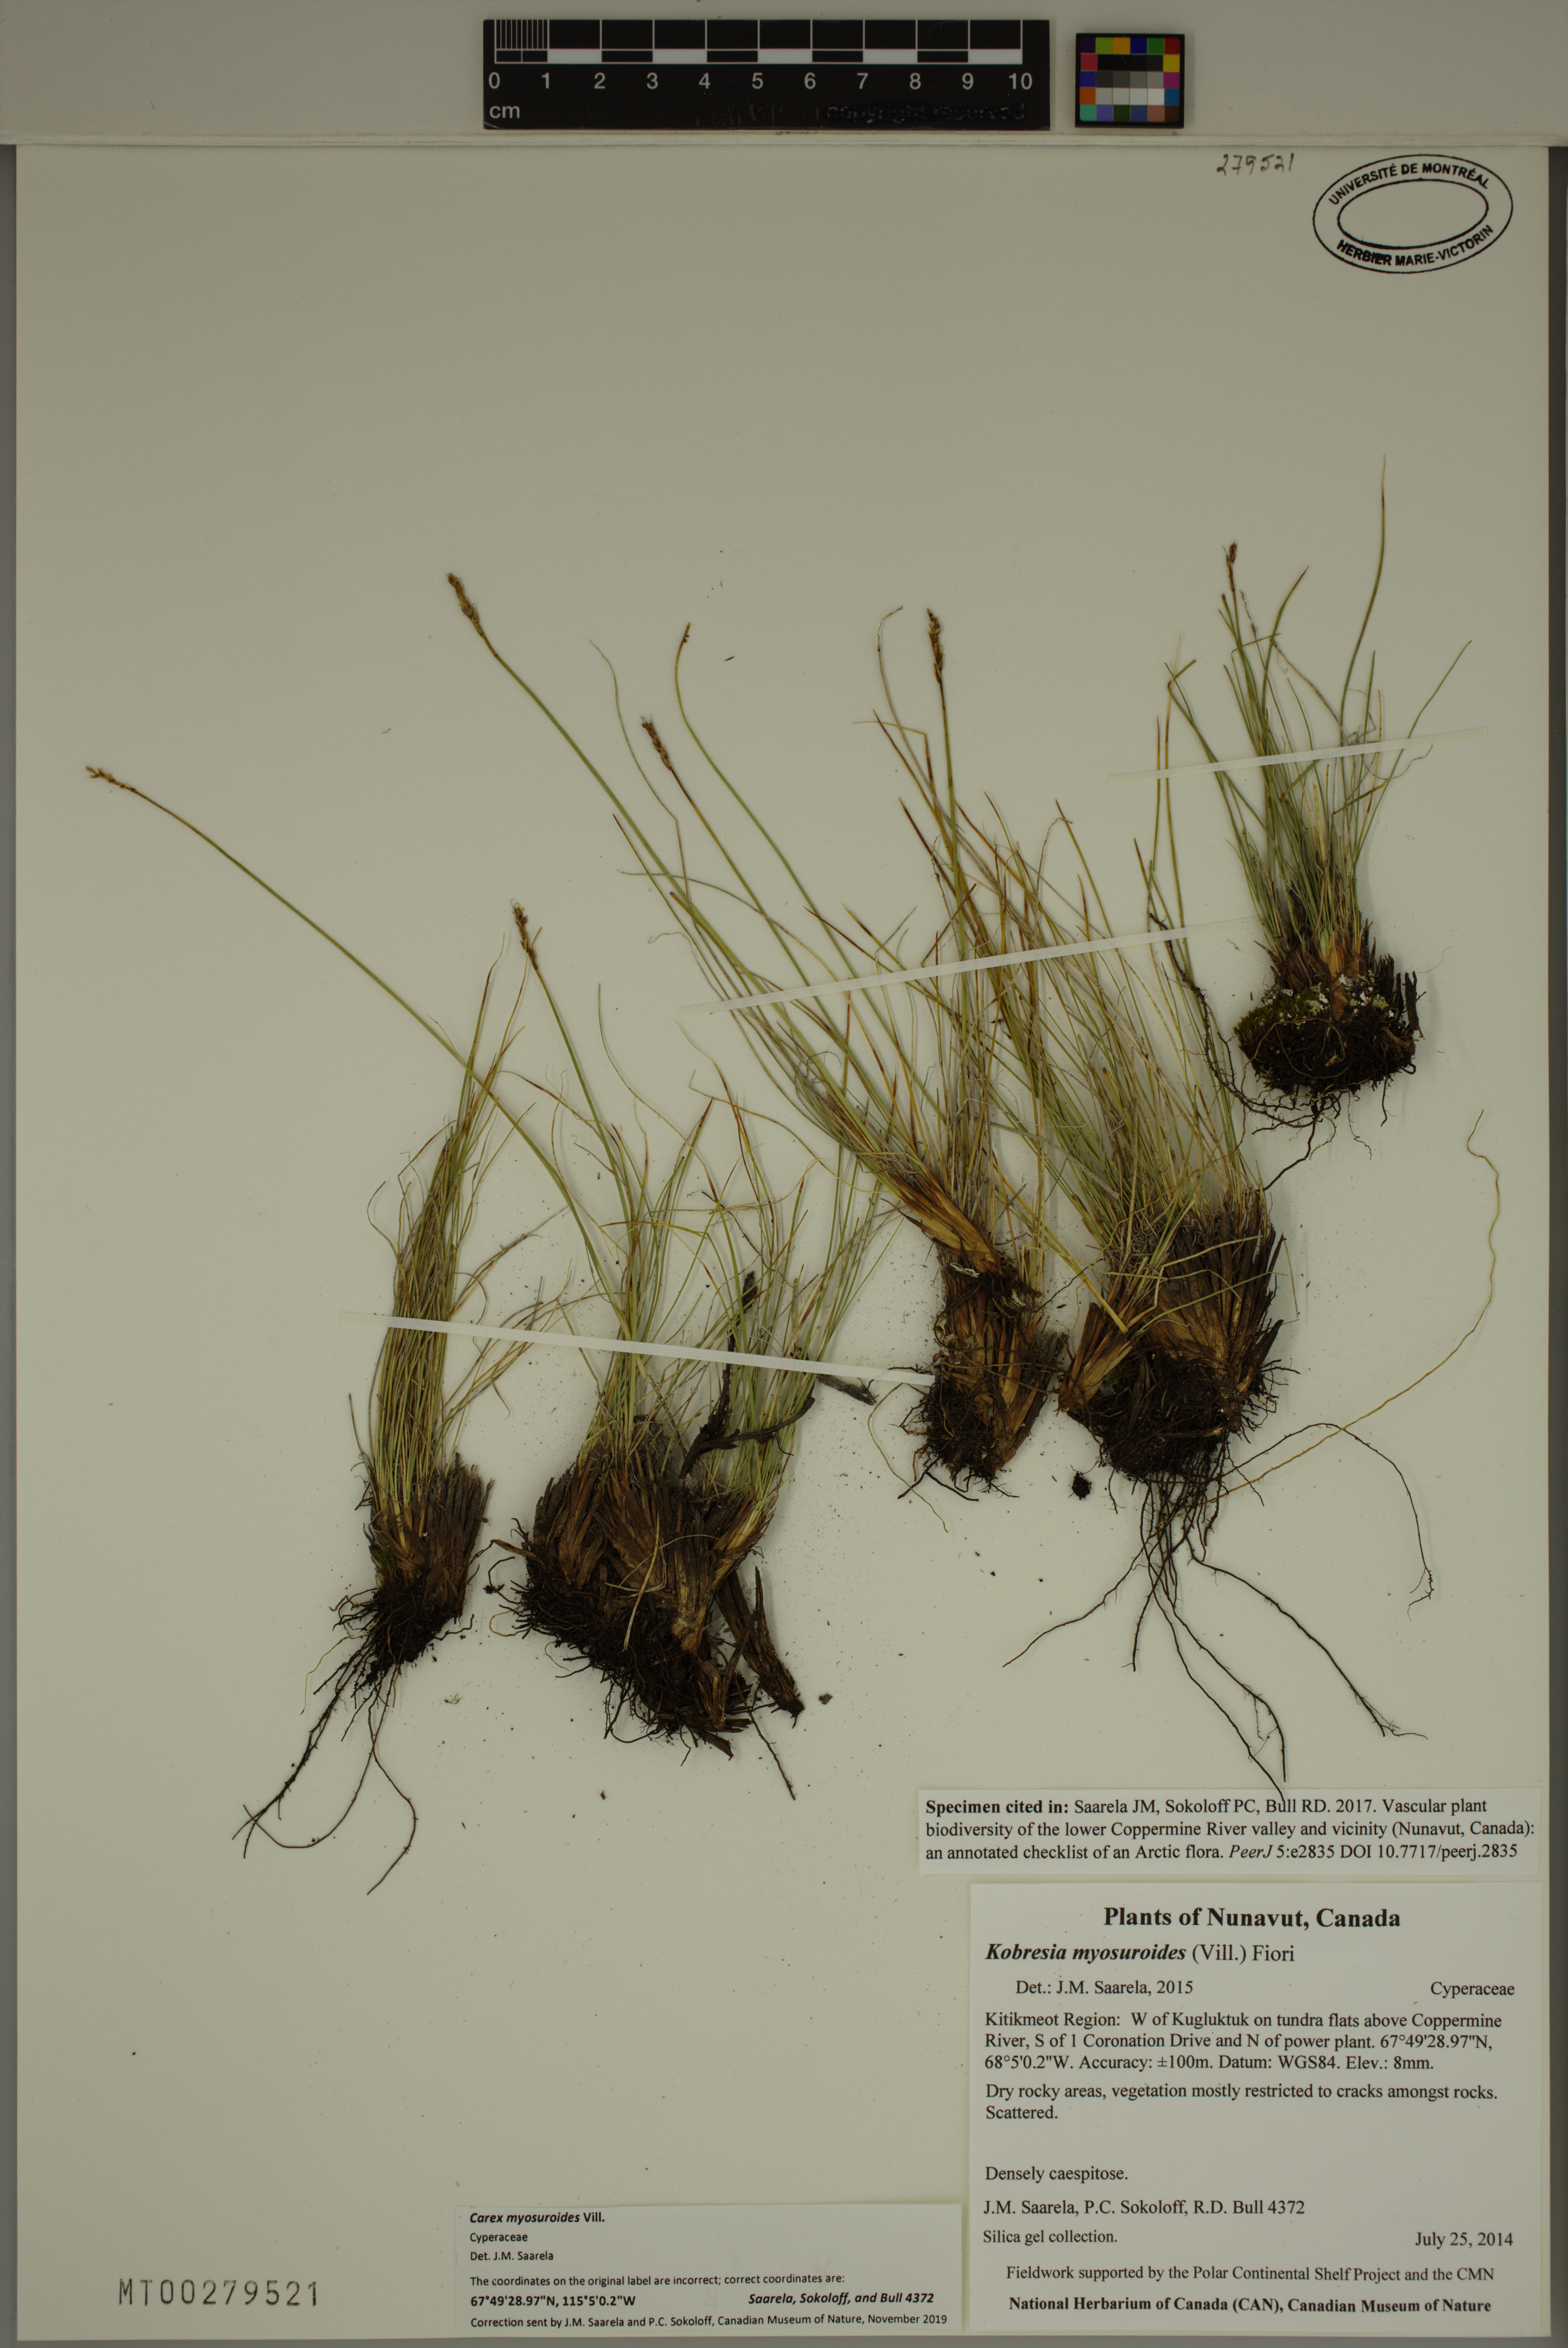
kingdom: Plantae
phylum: Tracheophyta
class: Liliopsida
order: Poales
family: Cyperaceae
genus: Carex
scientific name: Carex myosuroides
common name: Bellard's bog sedge
